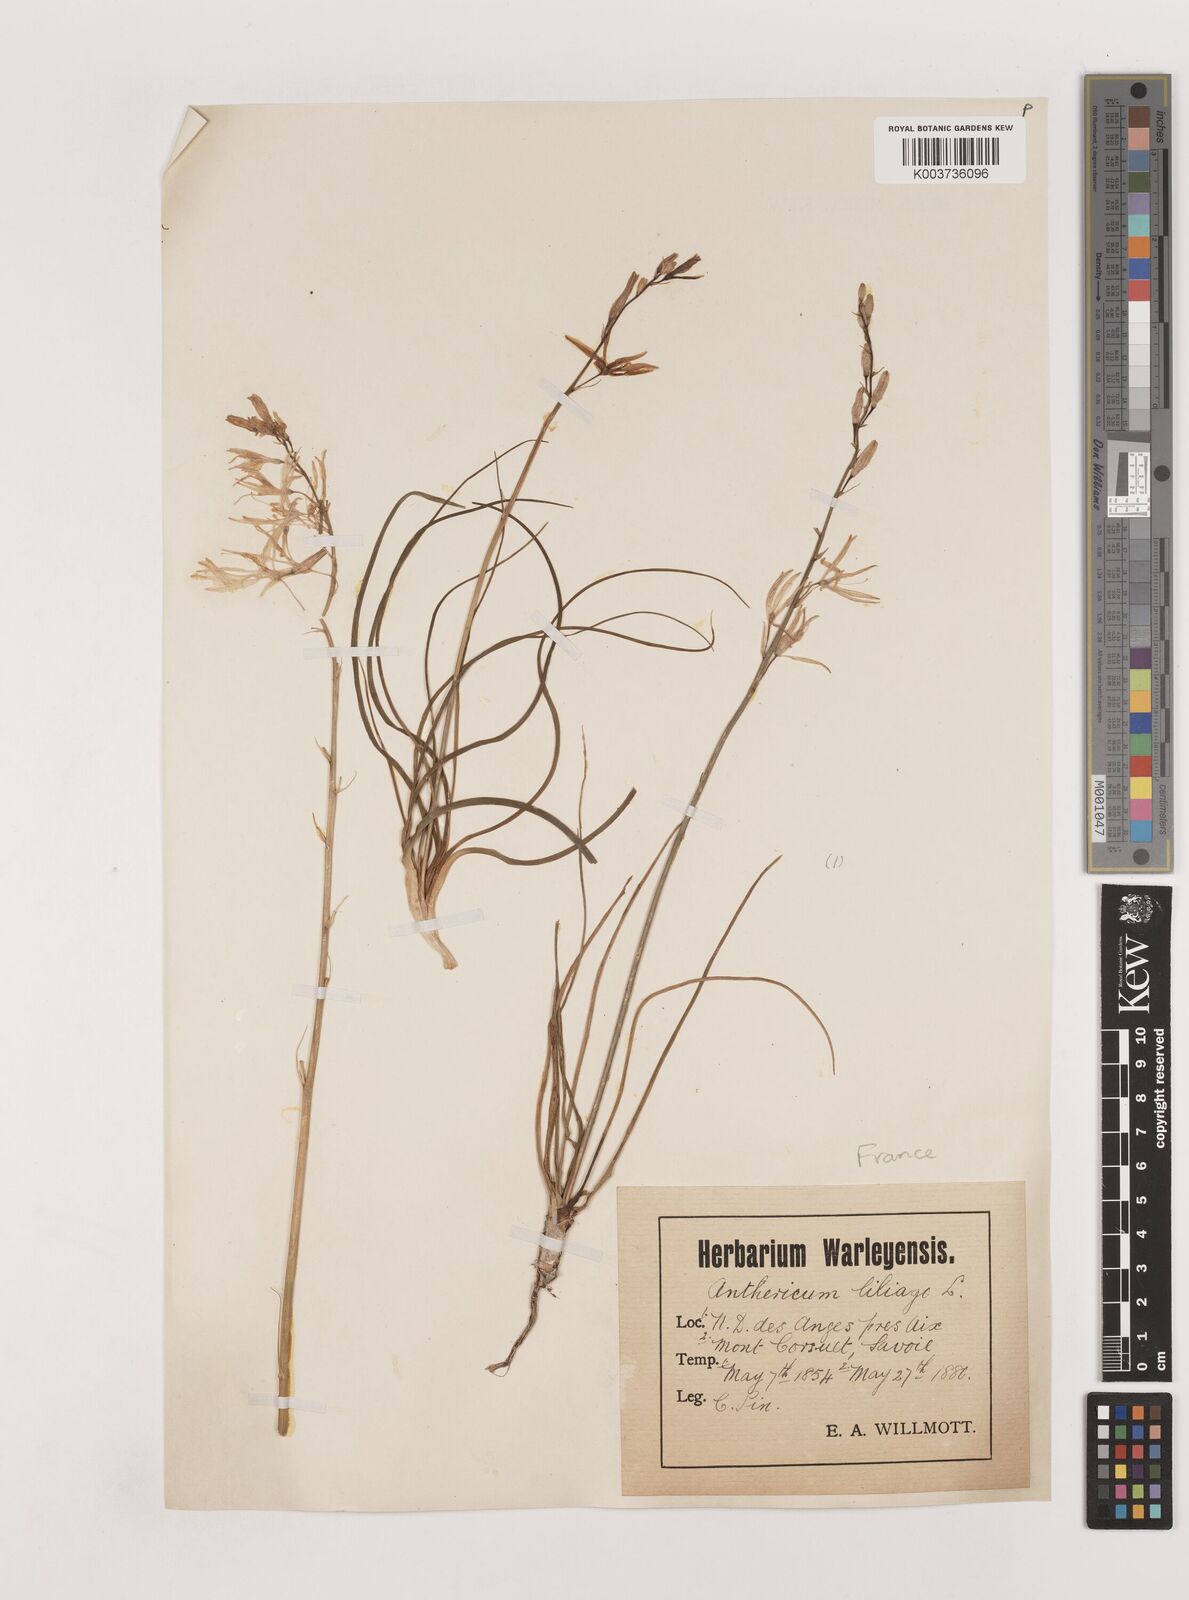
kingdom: Plantae
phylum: Tracheophyta
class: Liliopsida
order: Asparagales
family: Asparagaceae
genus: Anthericum
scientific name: Anthericum liliago
